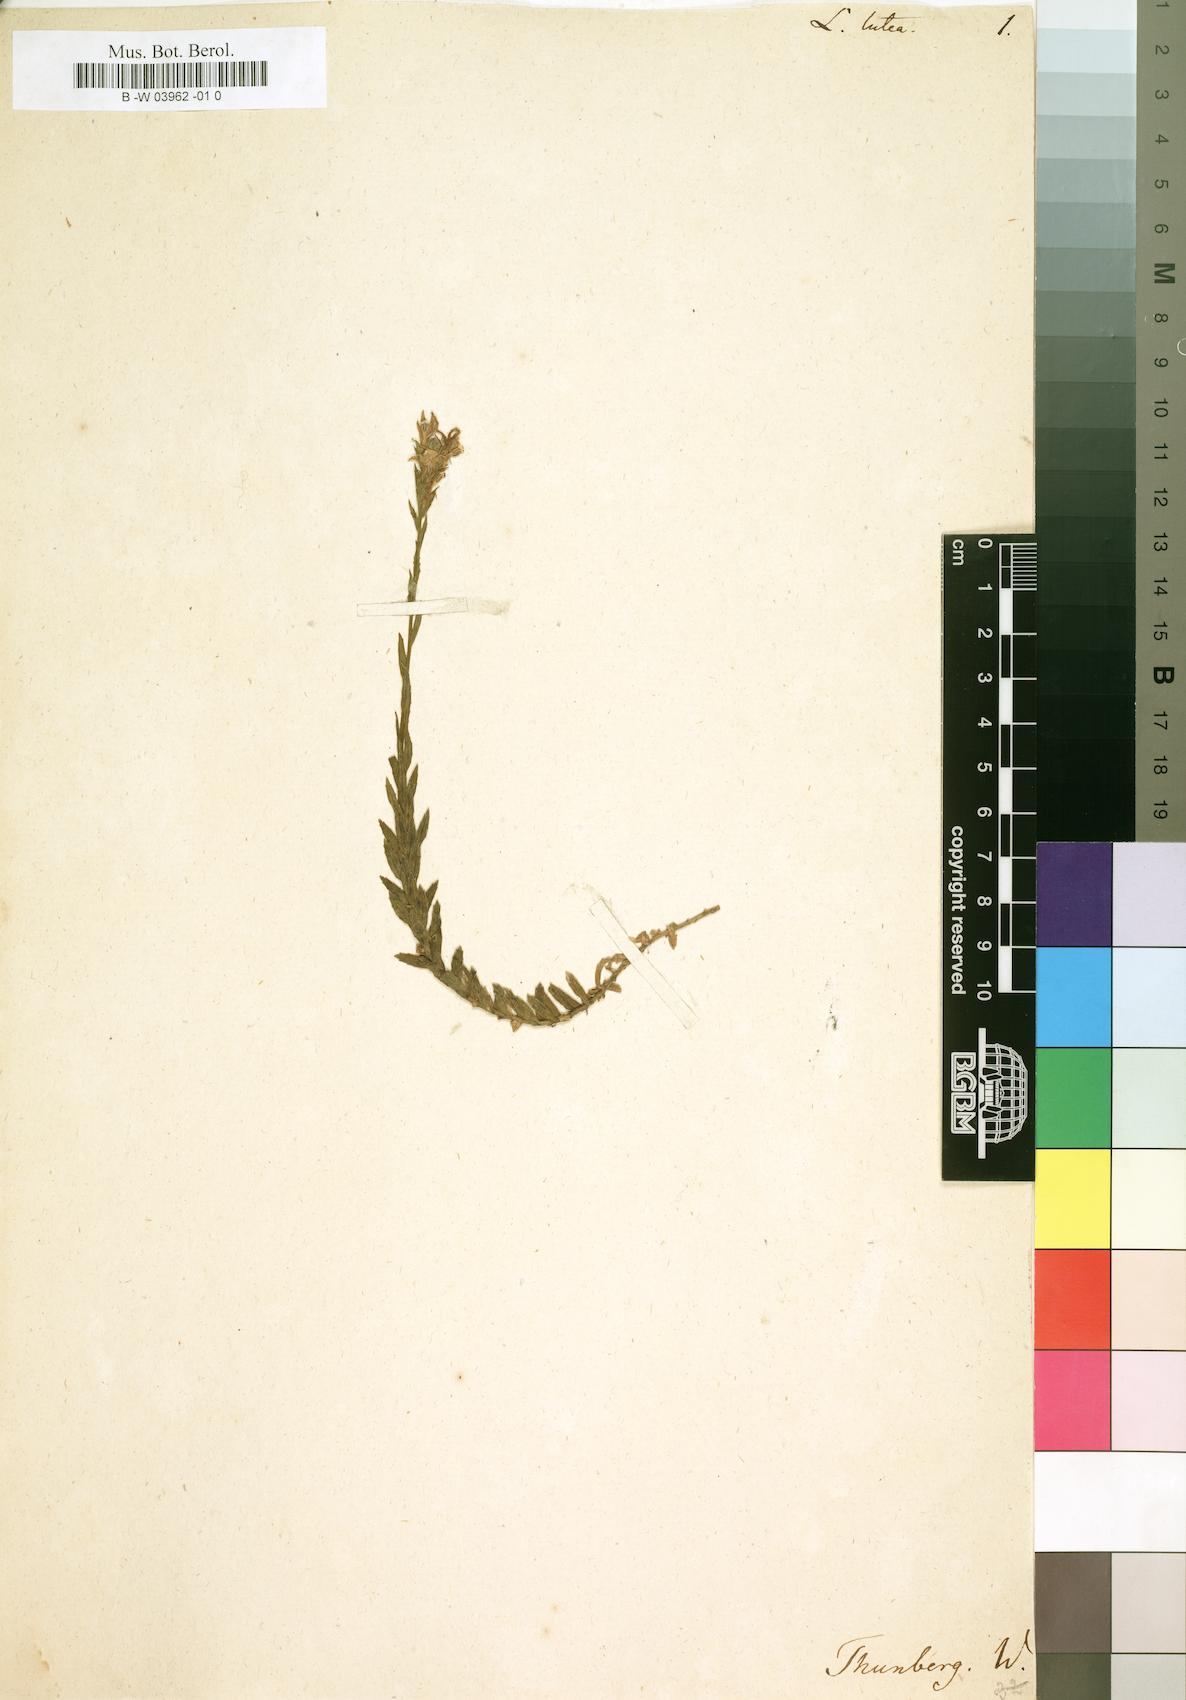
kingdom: Plantae
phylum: Tracheophyta
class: Magnoliopsida
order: Asterales
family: Campanulaceae
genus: Monopsis
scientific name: Monopsis lutea
